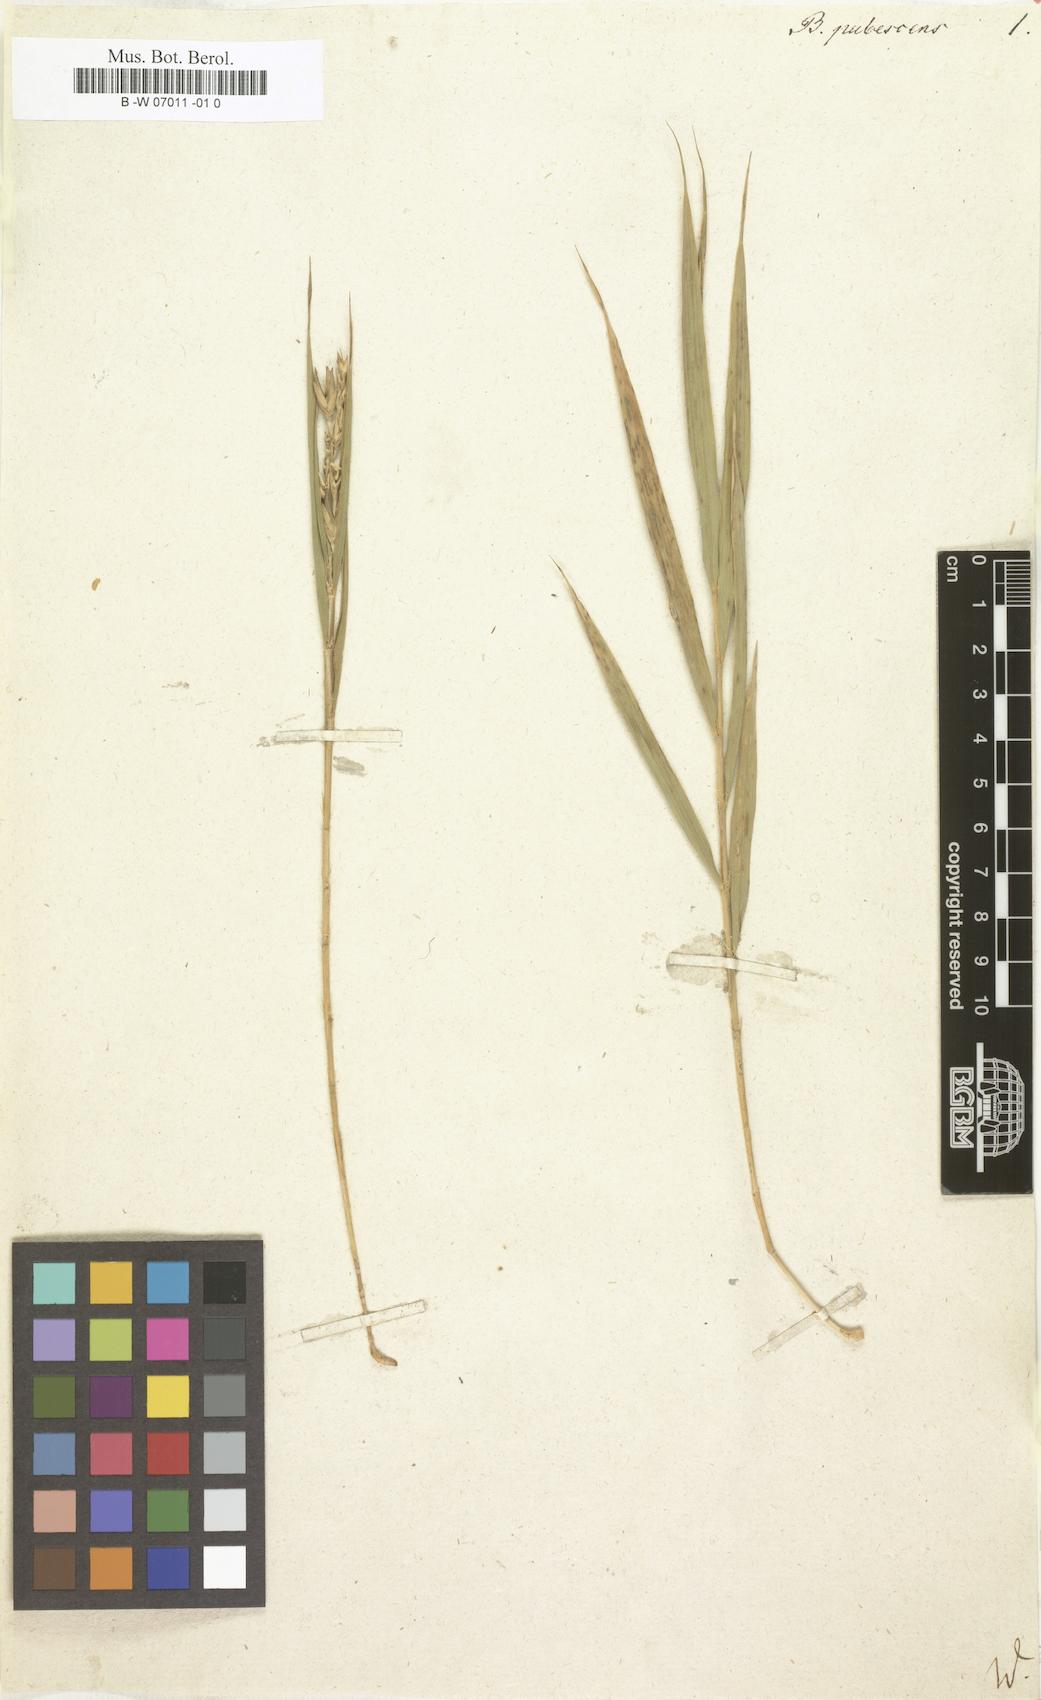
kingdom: Plantae
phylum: Tracheophyta
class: Liliopsida
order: Poales
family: Poaceae
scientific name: Poaceae
